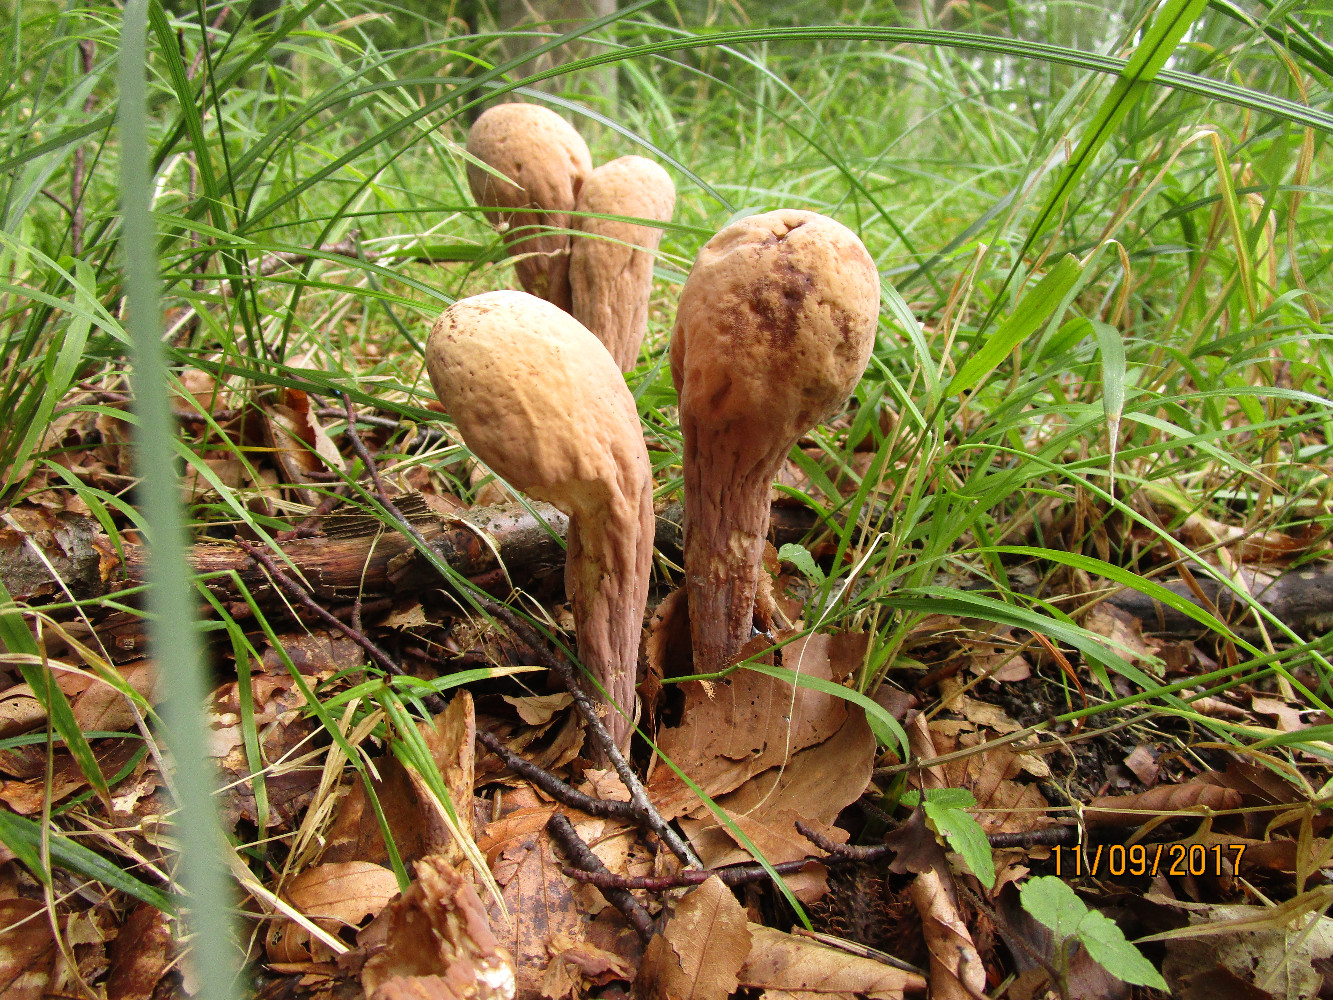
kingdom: Fungi
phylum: Basidiomycota
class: Agaricomycetes
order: Gomphales
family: Clavariadelphaceae
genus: Clavariadelphus
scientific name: Clavariadelphus pistillaris
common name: herkules-kæmpekølle
